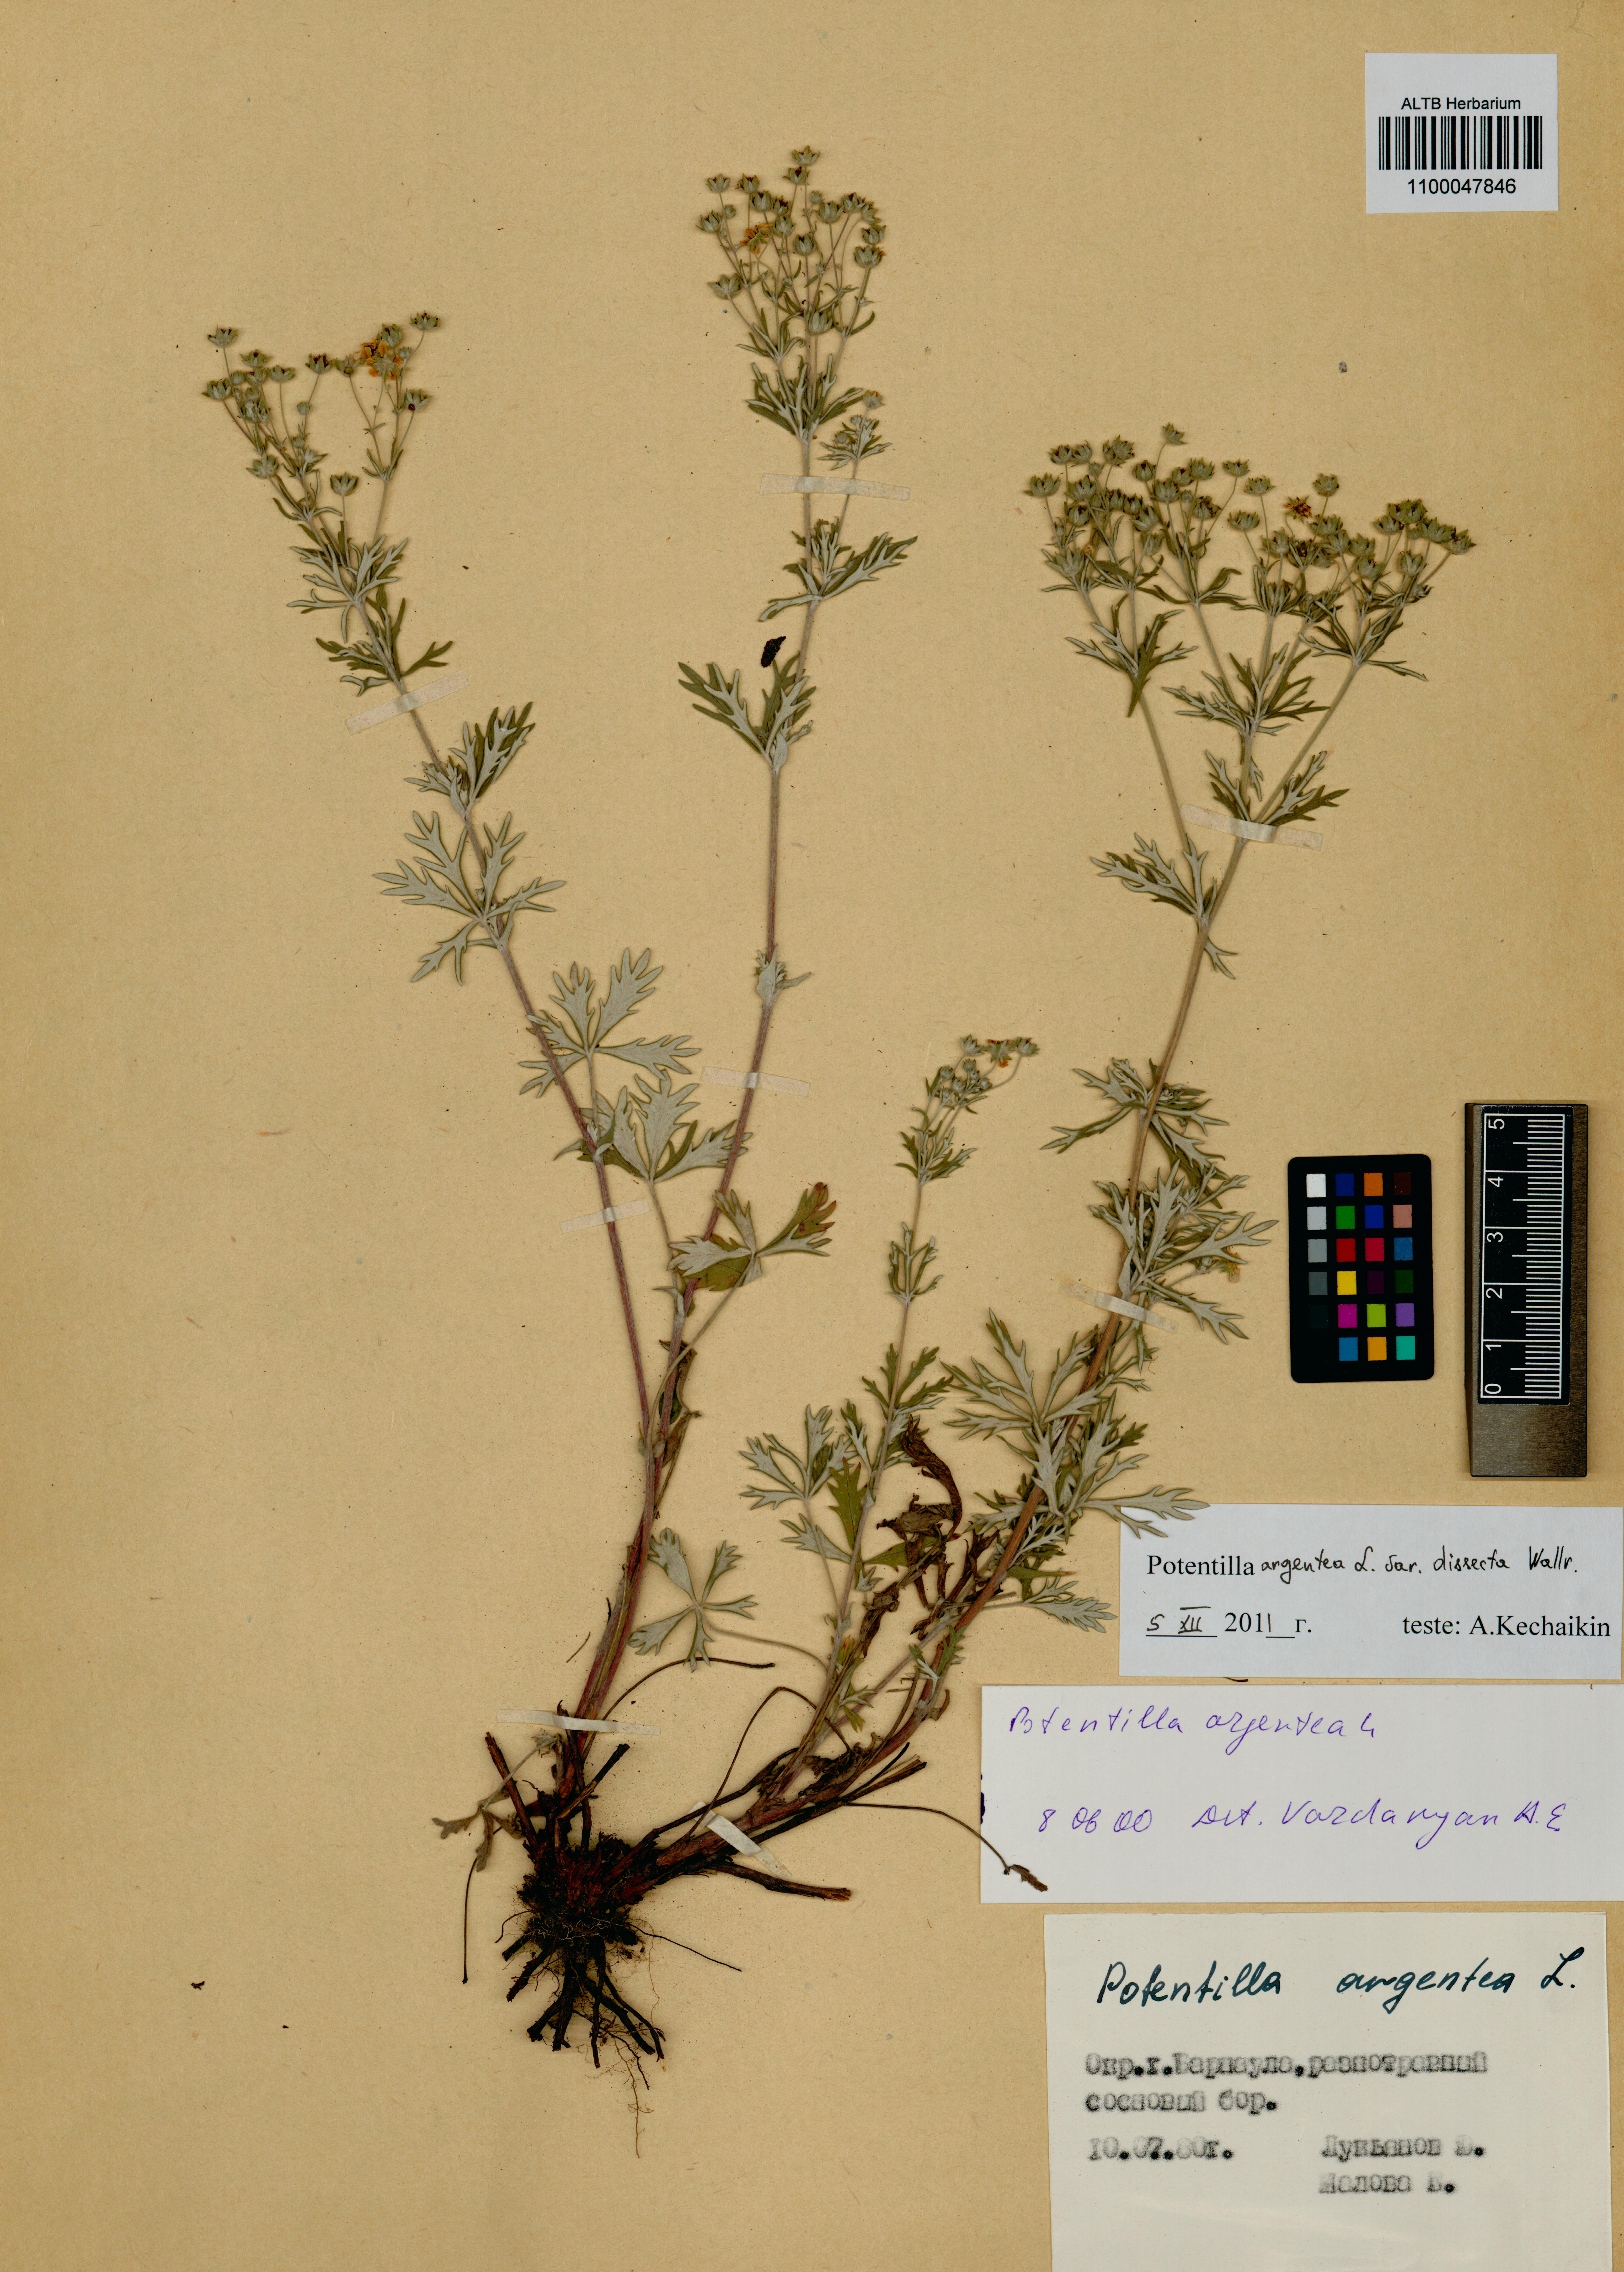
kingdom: Plantae
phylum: Tracheophyta
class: Magnoliopsida
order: Rosales
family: Rosaceae
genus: Potentilla
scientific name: Potentilla argentea
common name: Hoary cinquefoil
